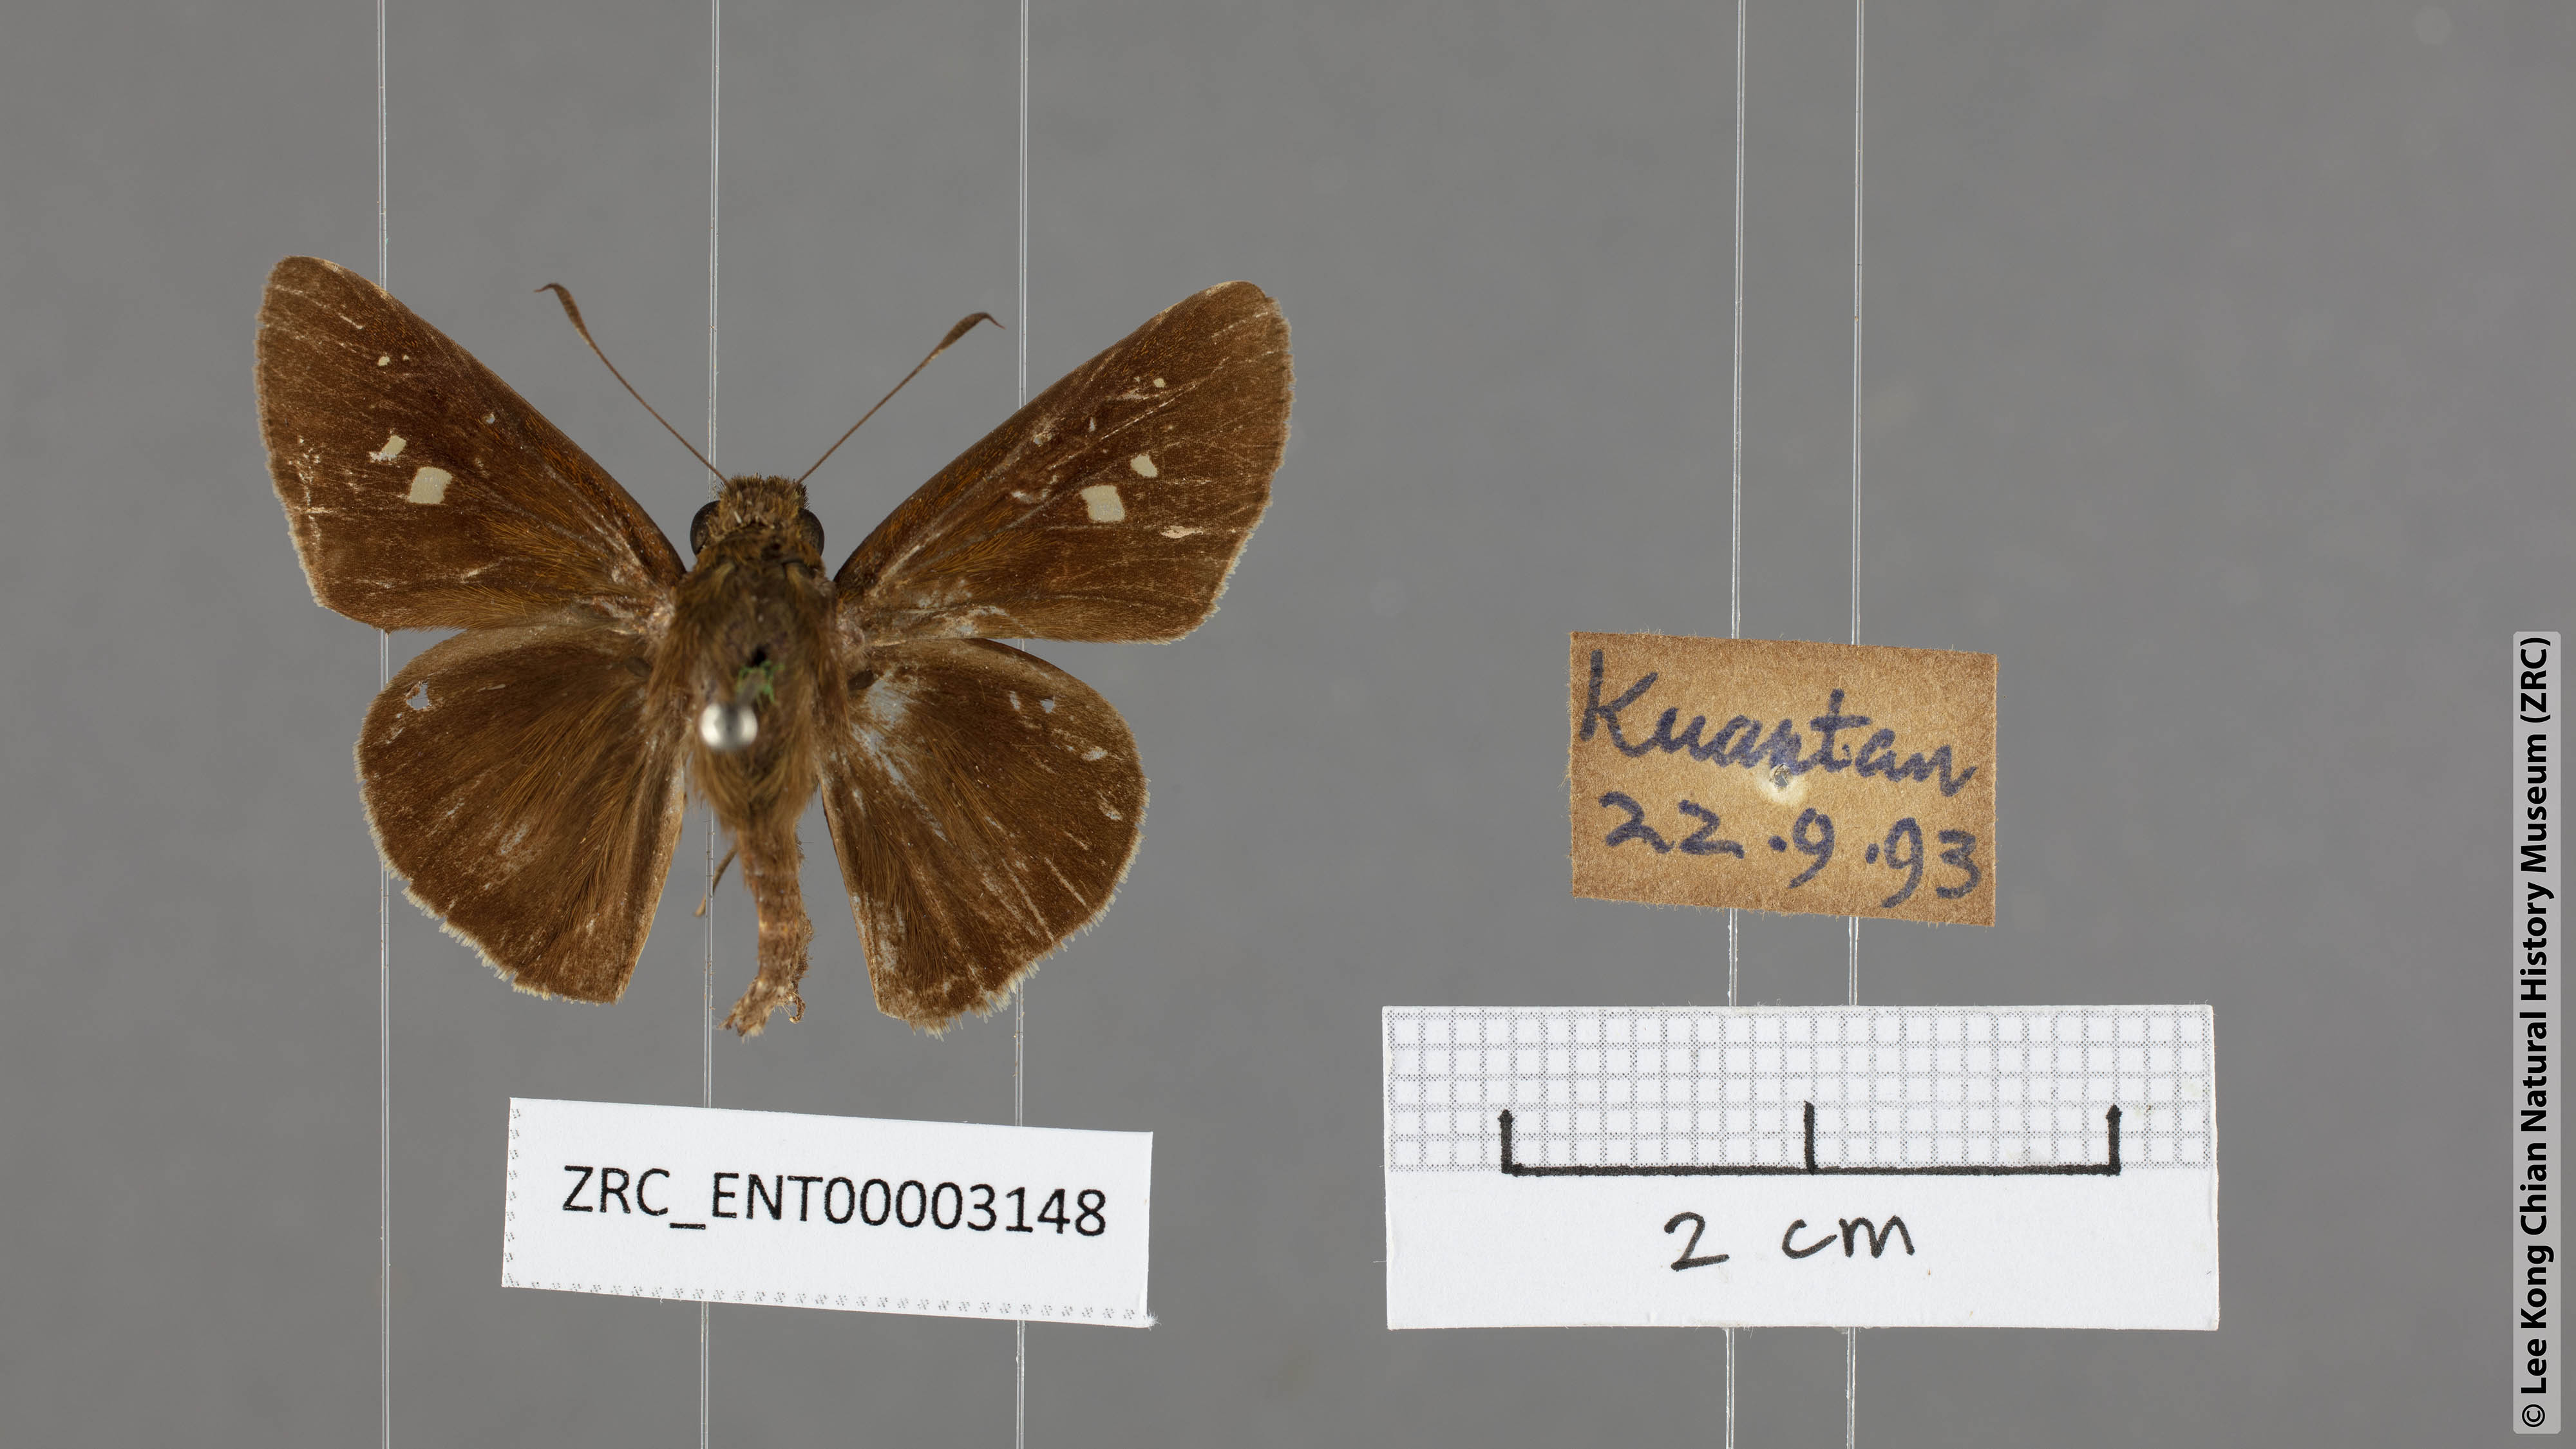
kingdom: Animalia
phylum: Arthropoda
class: Insecta
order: Lepidoptera
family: Hesperiidae
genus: Caltoris
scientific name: Caltoris bromus
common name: Colon swift
